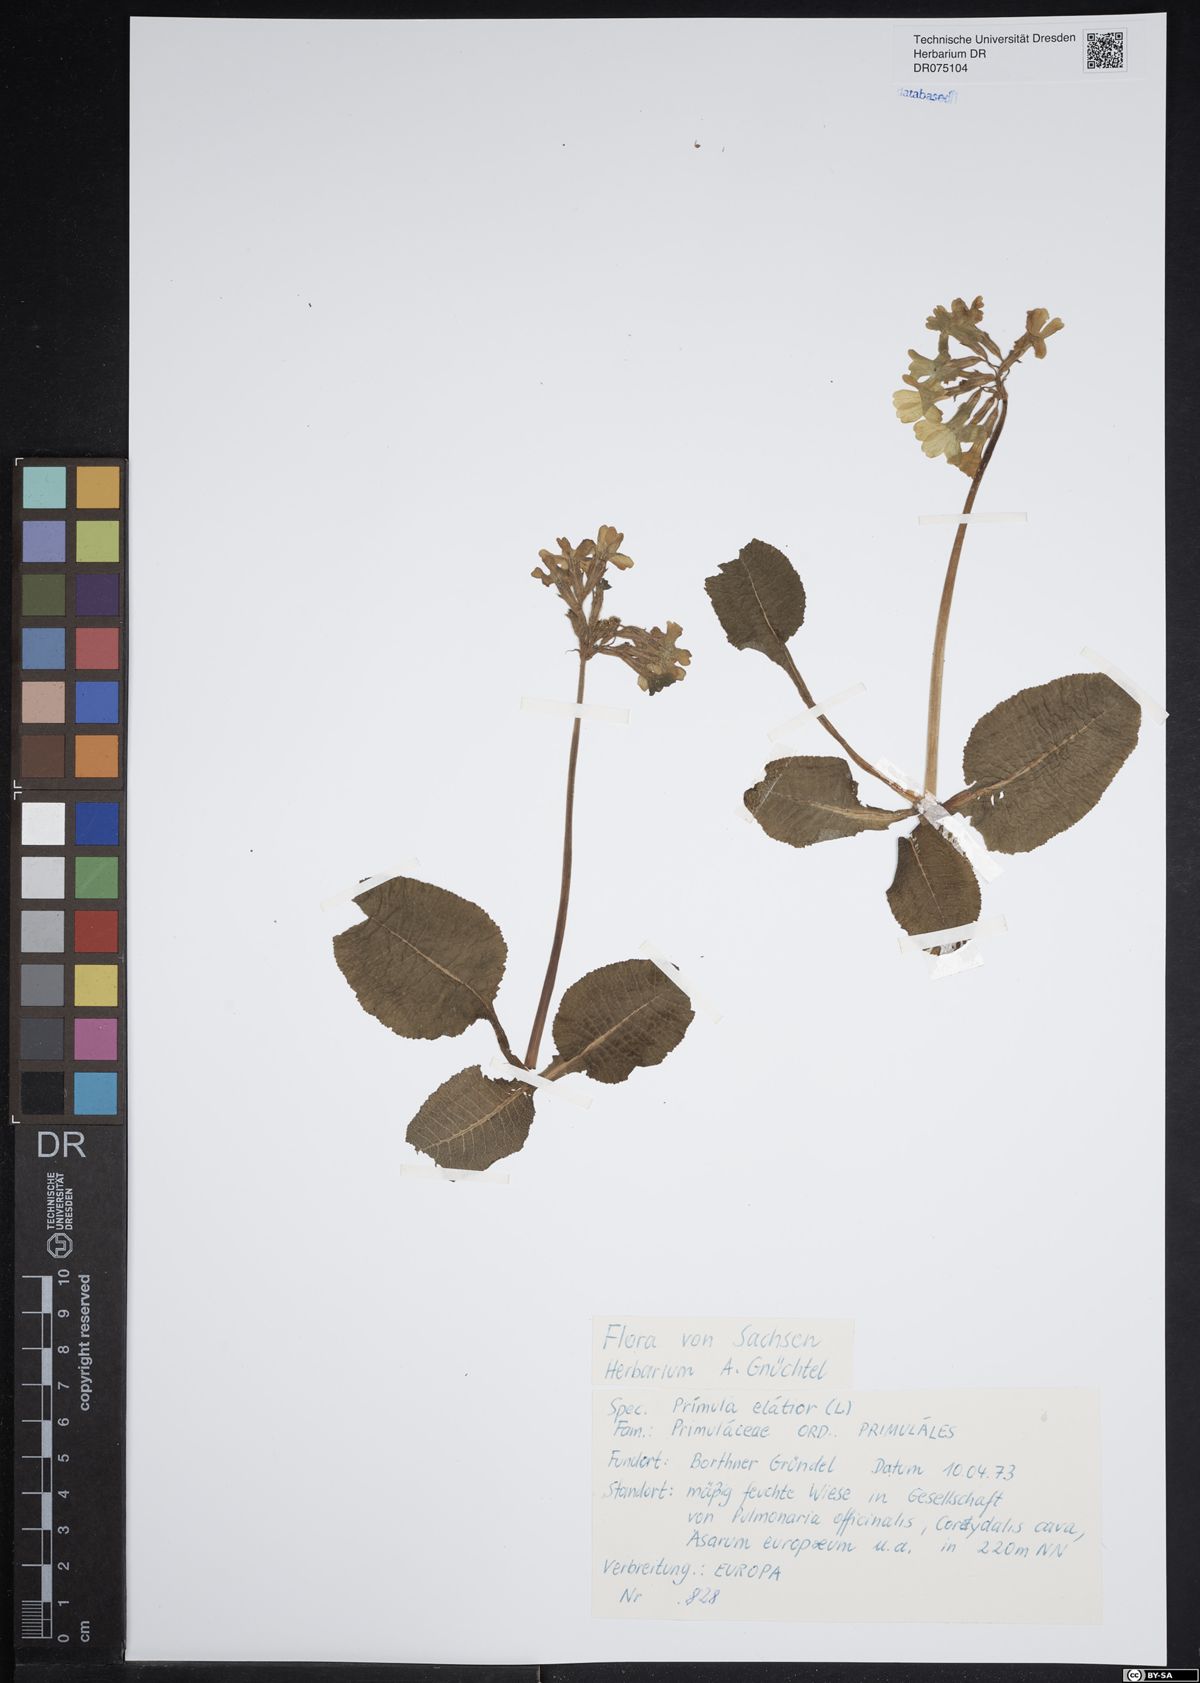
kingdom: Plantae
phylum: Tracheophyta
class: Magnoliopsida
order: Ericales
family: Primulaceae
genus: Primula
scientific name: Primula elatior
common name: Oxlip
